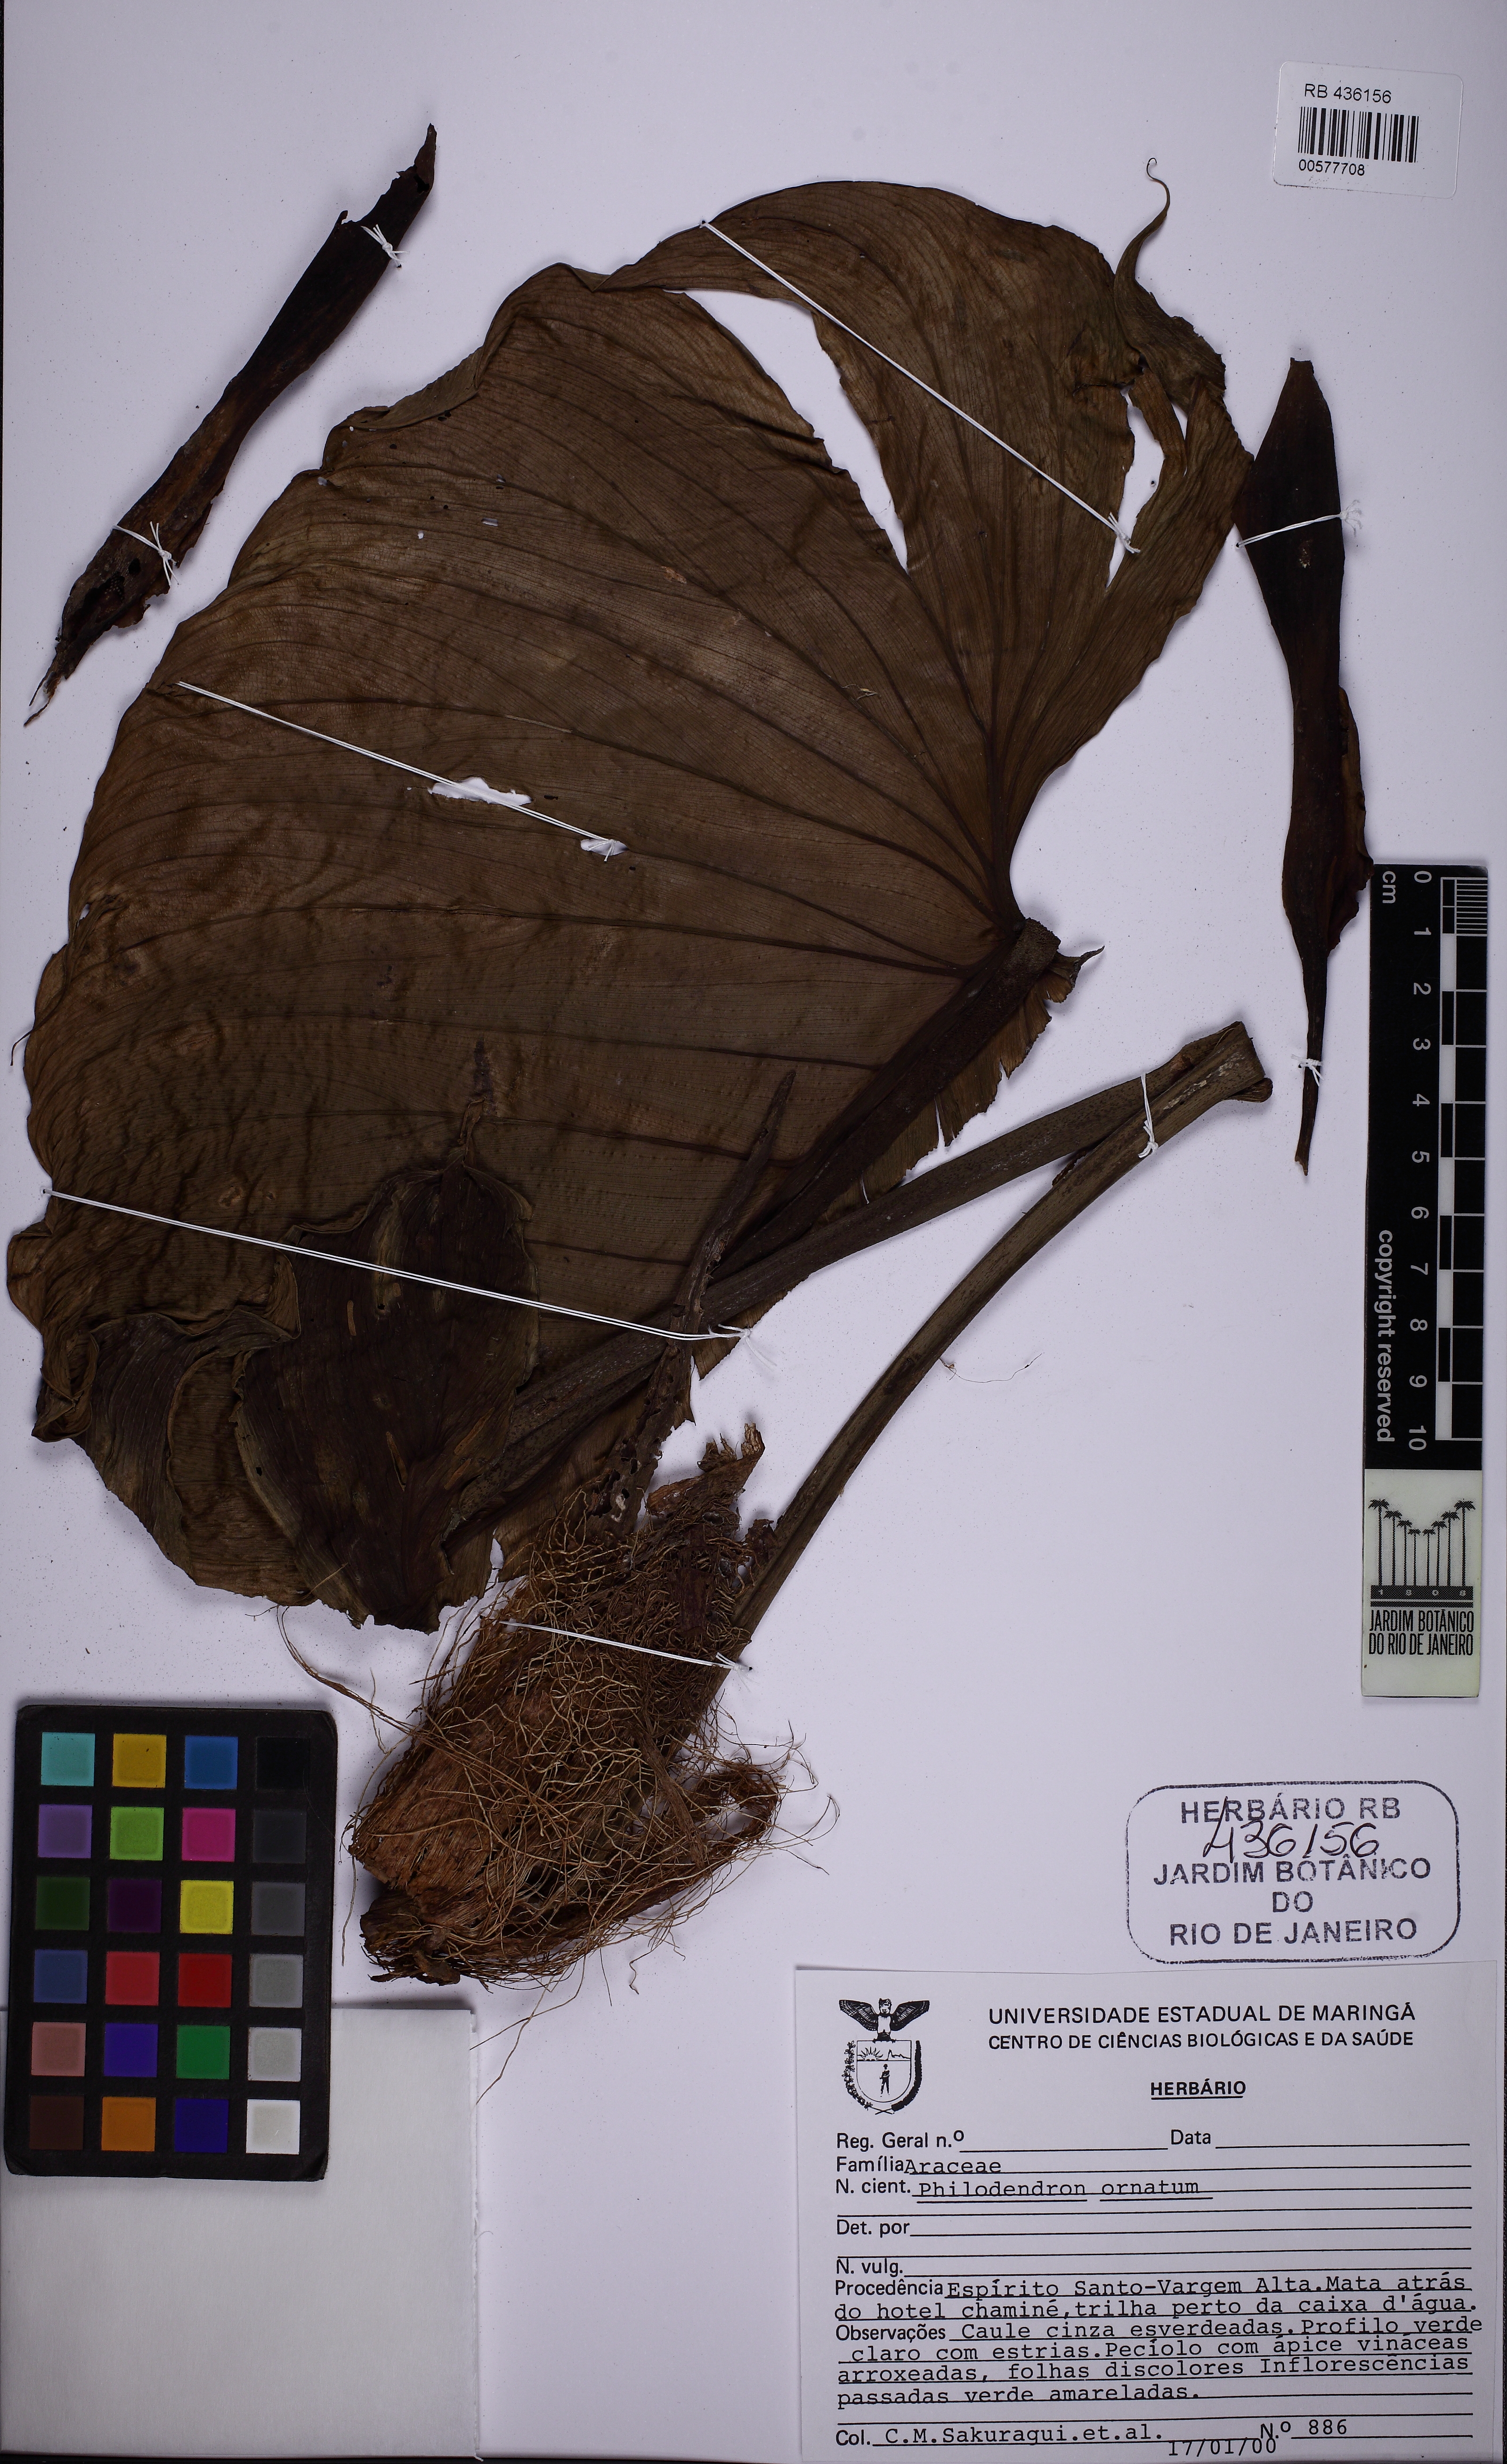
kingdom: Plantae
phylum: Tracheophyta
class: Liliopsida
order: Alismatales
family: Araceae
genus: Philodendron
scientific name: Philodendron ornatum
